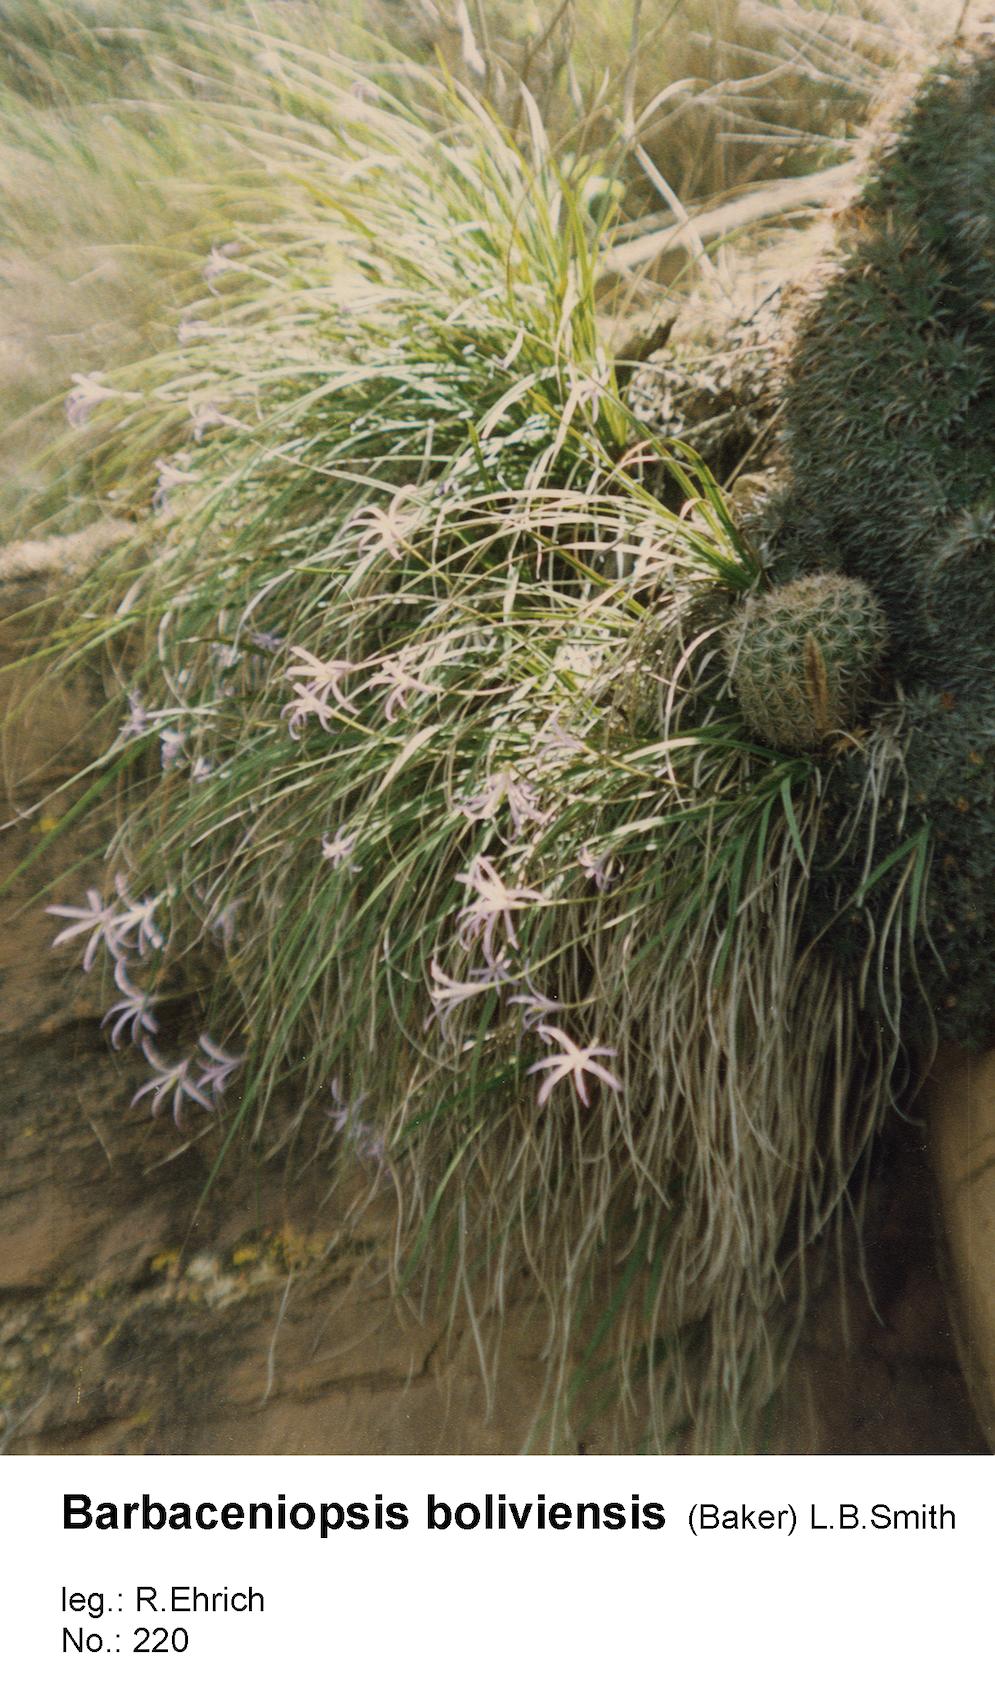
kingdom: Plantae
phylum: Tracheophyta
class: Liliopsida
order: Pandanales
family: Velloziaceae
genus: Barbaceniopsis
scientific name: Barbaceniopsis boliviensis
